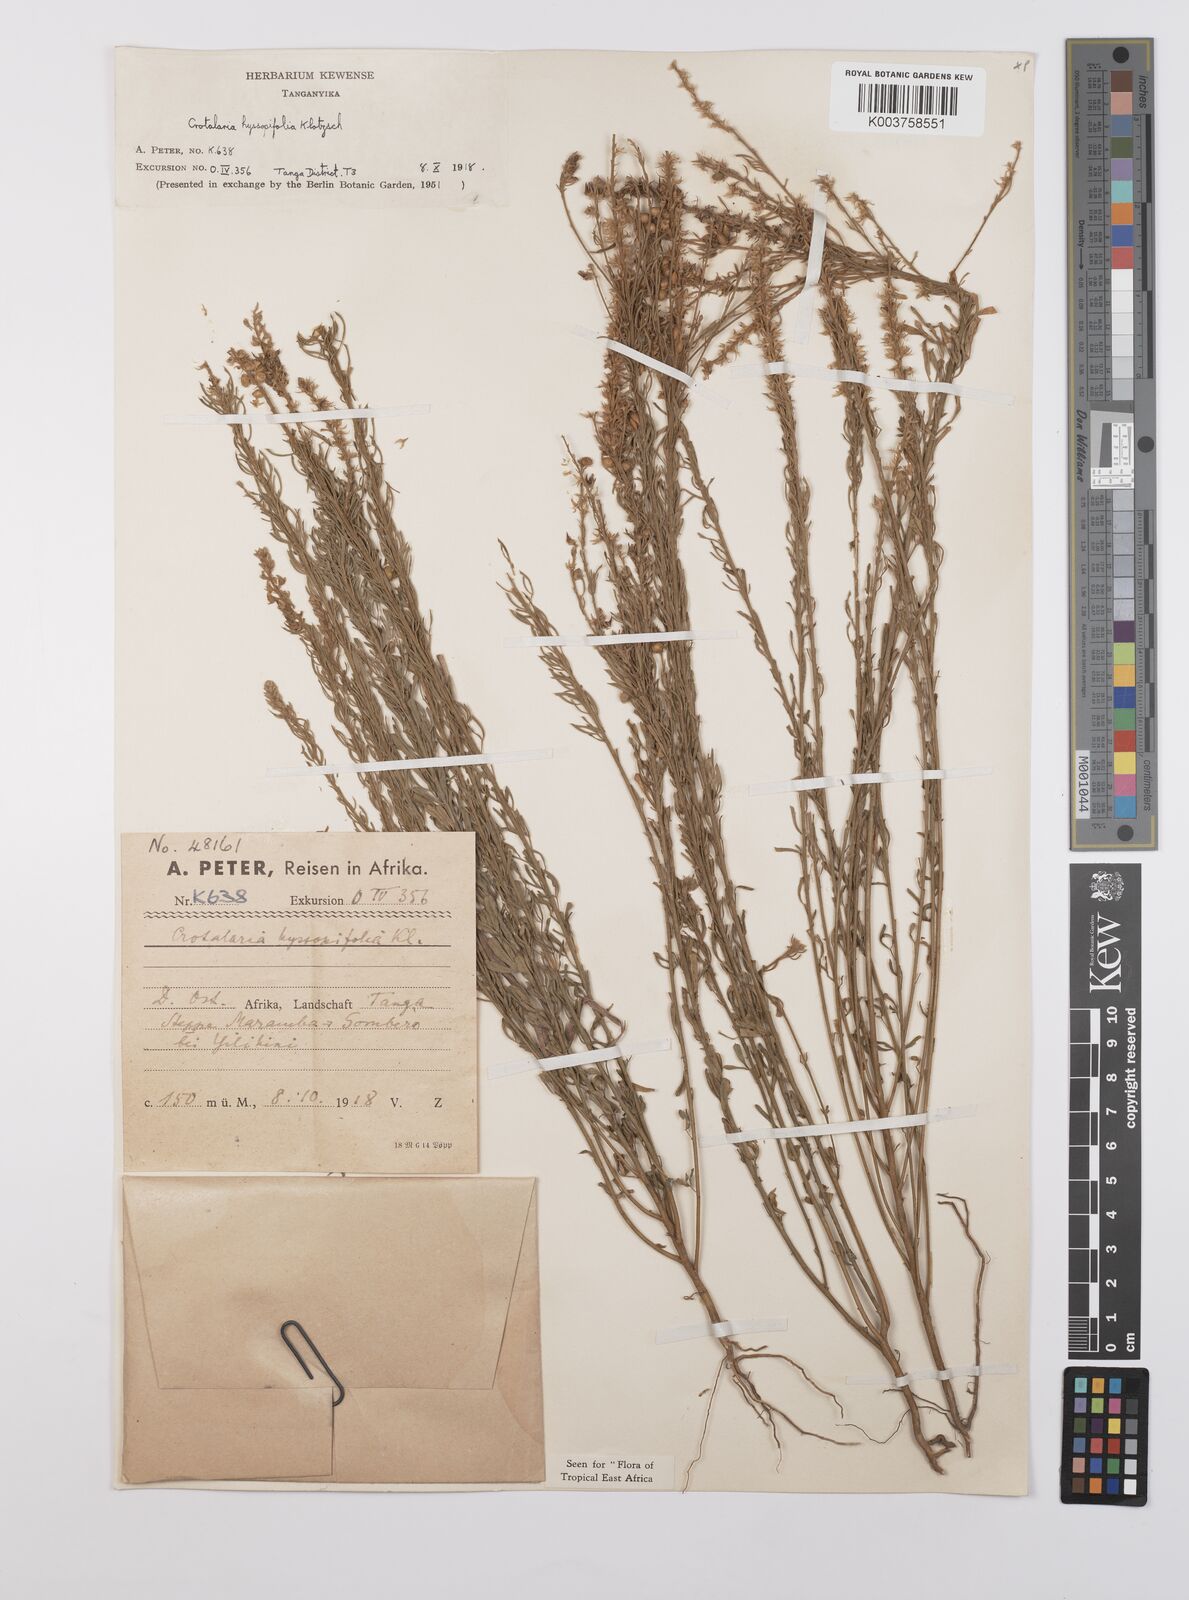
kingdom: Plantae
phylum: Tracheophyta
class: Magnoliopsida
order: Fabales
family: Fabaceae
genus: Crotalaria
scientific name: Crotalaria hyssopifolia
